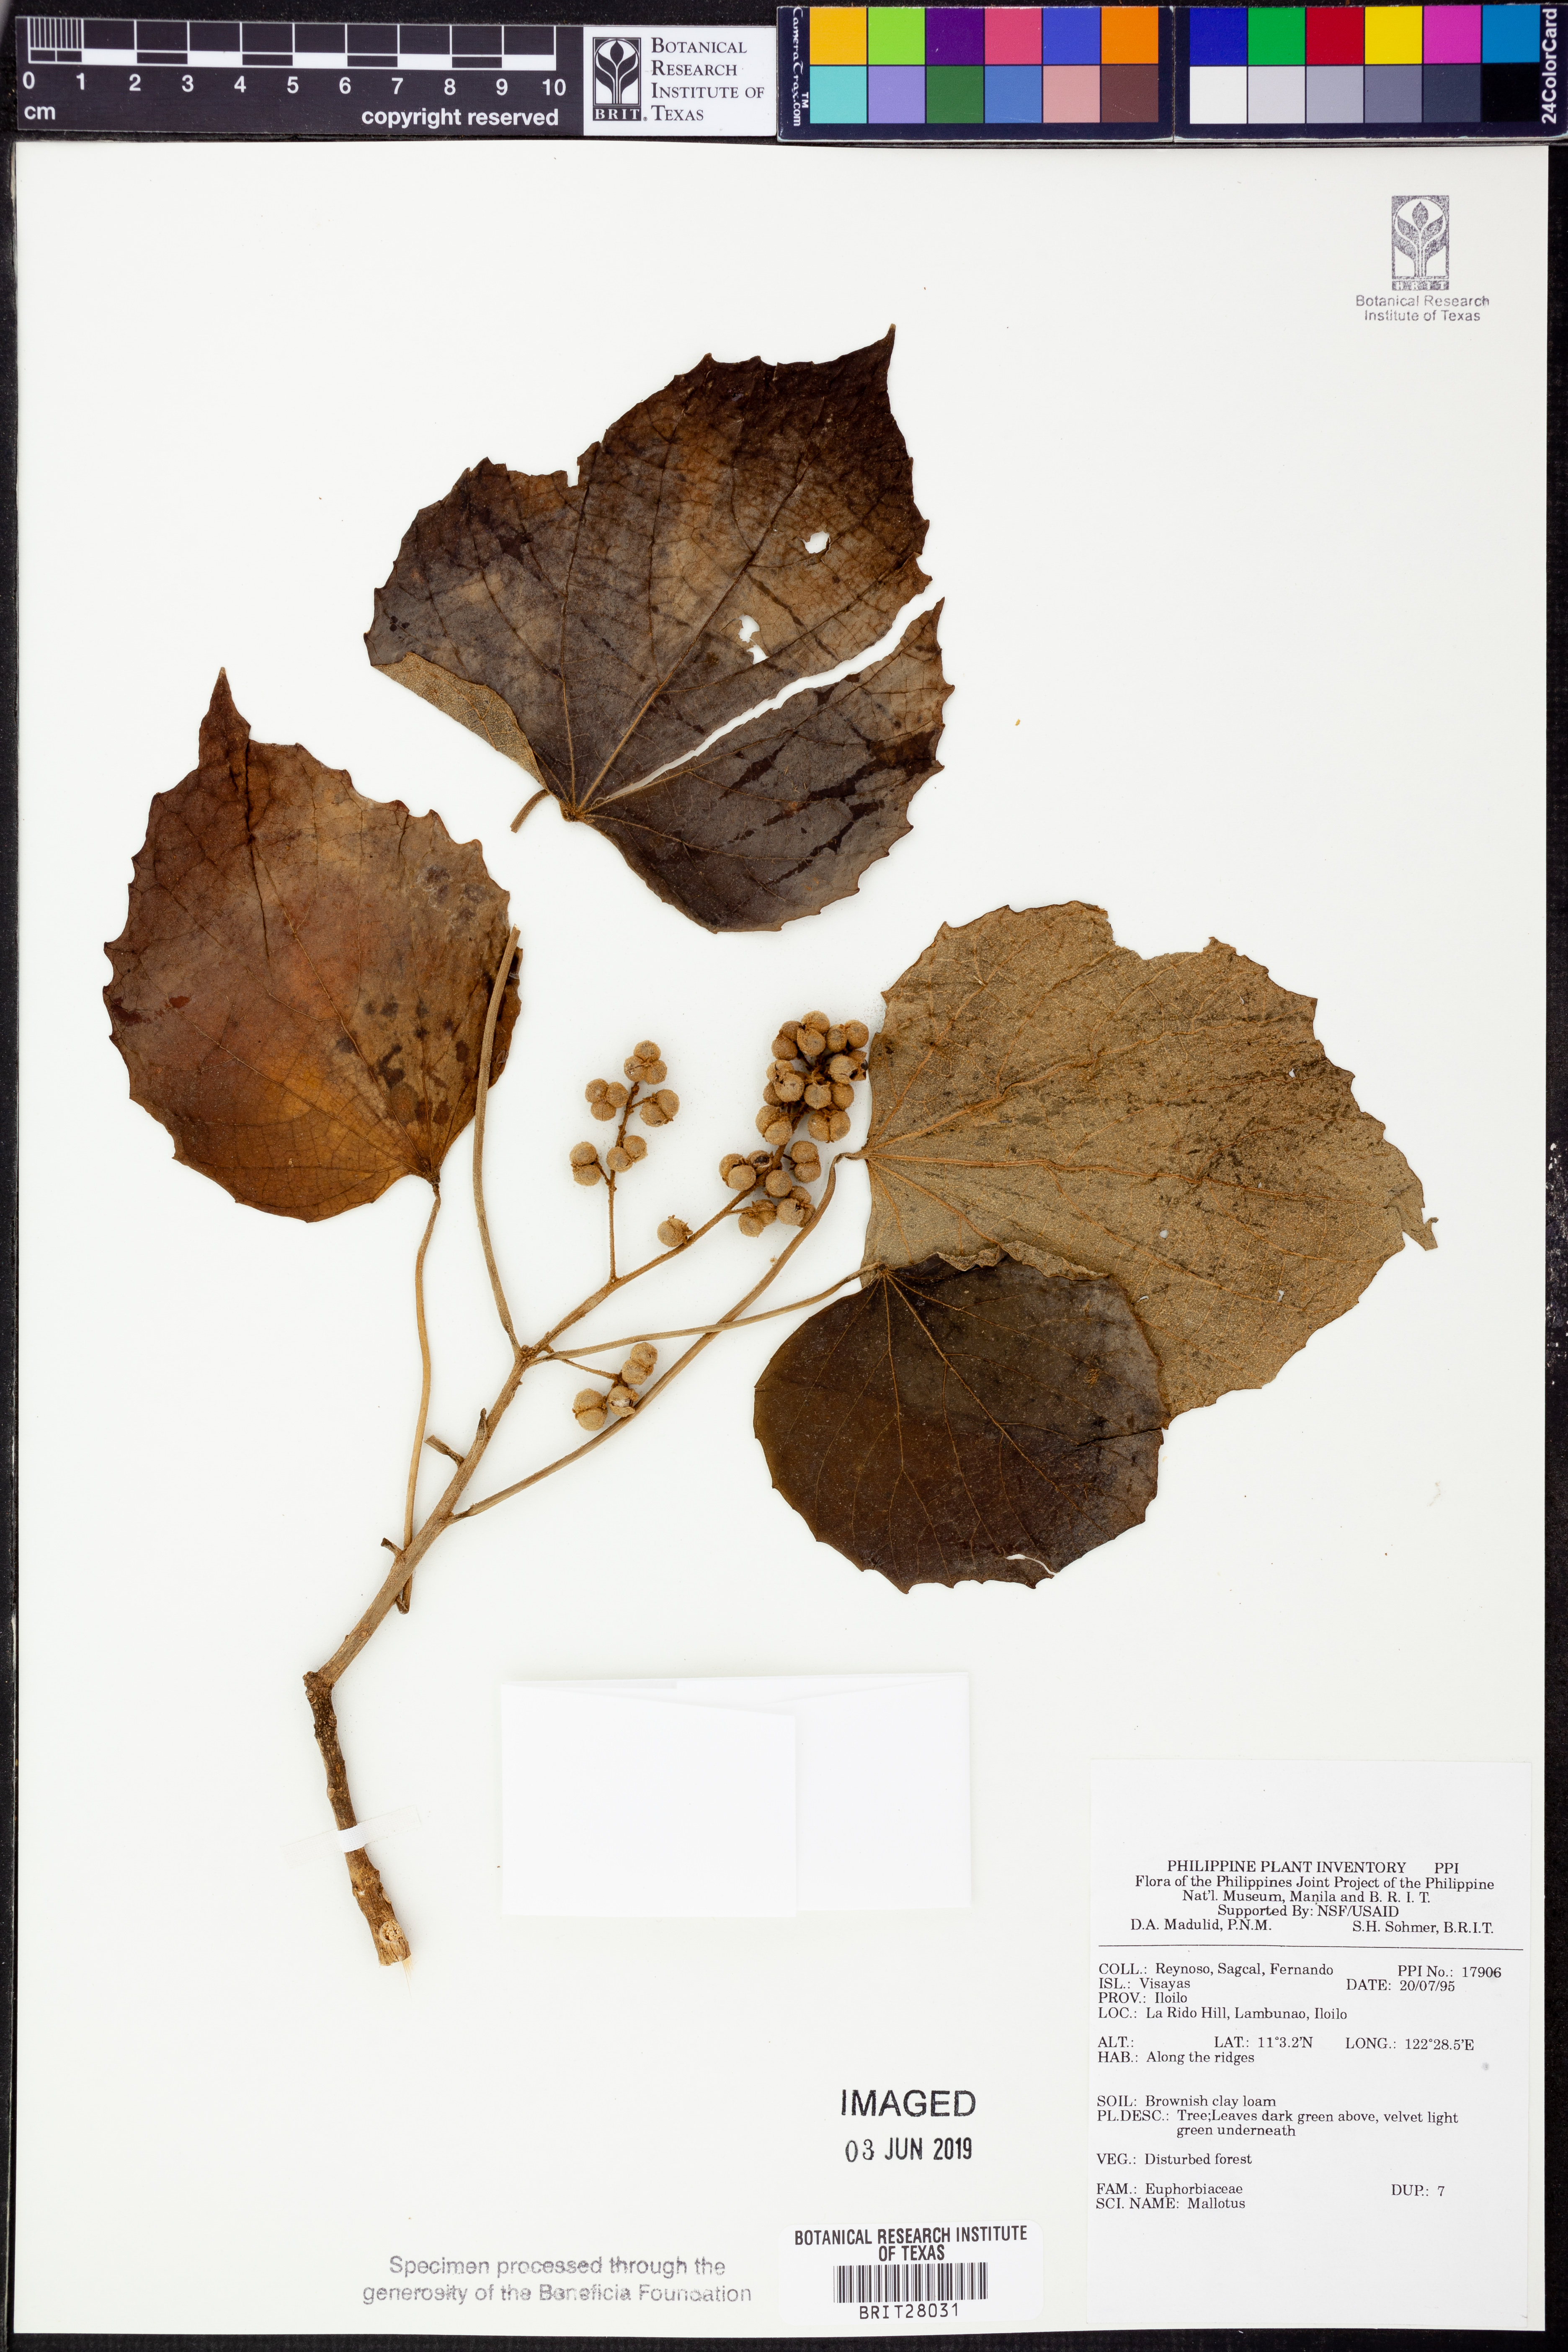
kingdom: Plantae
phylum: Tracheophyta
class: Magnoliopsida
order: Malpighiales
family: Euphorbiaceae
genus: Mallotus
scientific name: Mallotus
